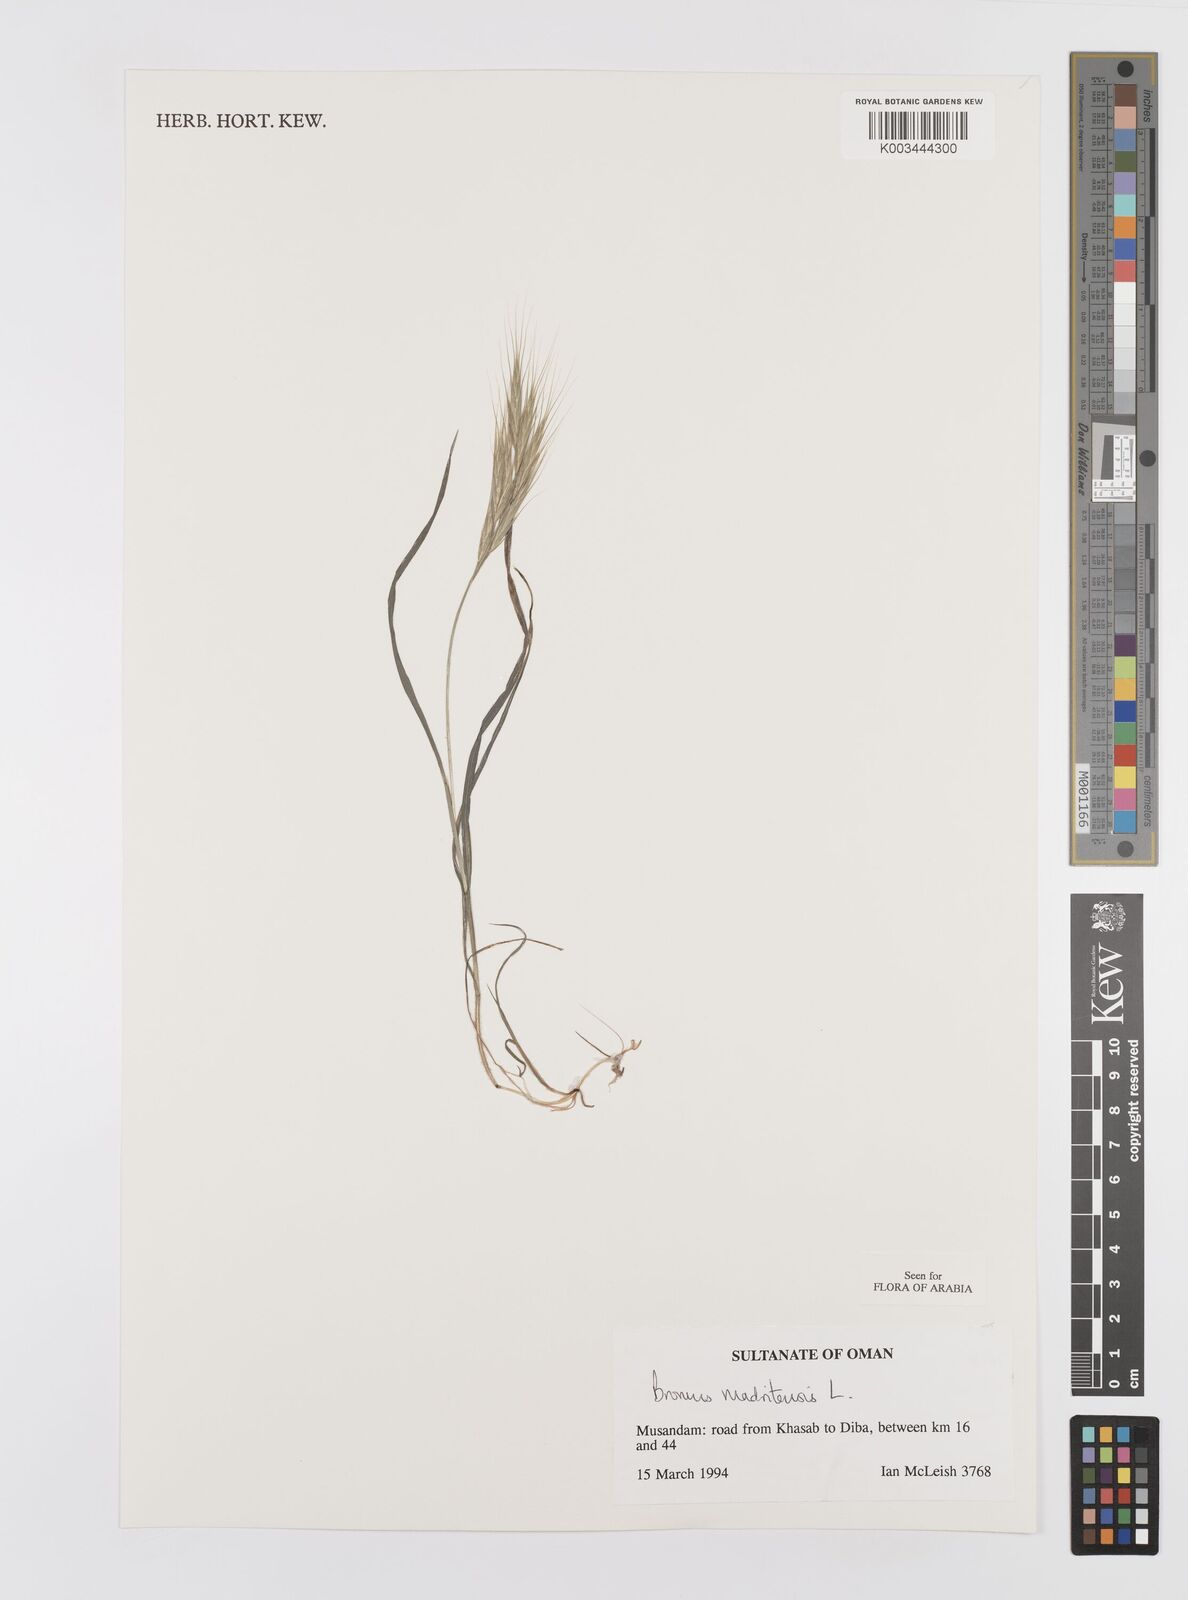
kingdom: Plantae
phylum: Tracheophyta
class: Liliopsida
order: Poales
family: Poaceae
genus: Bromus
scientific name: Bromus madritensis
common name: Compact brome
